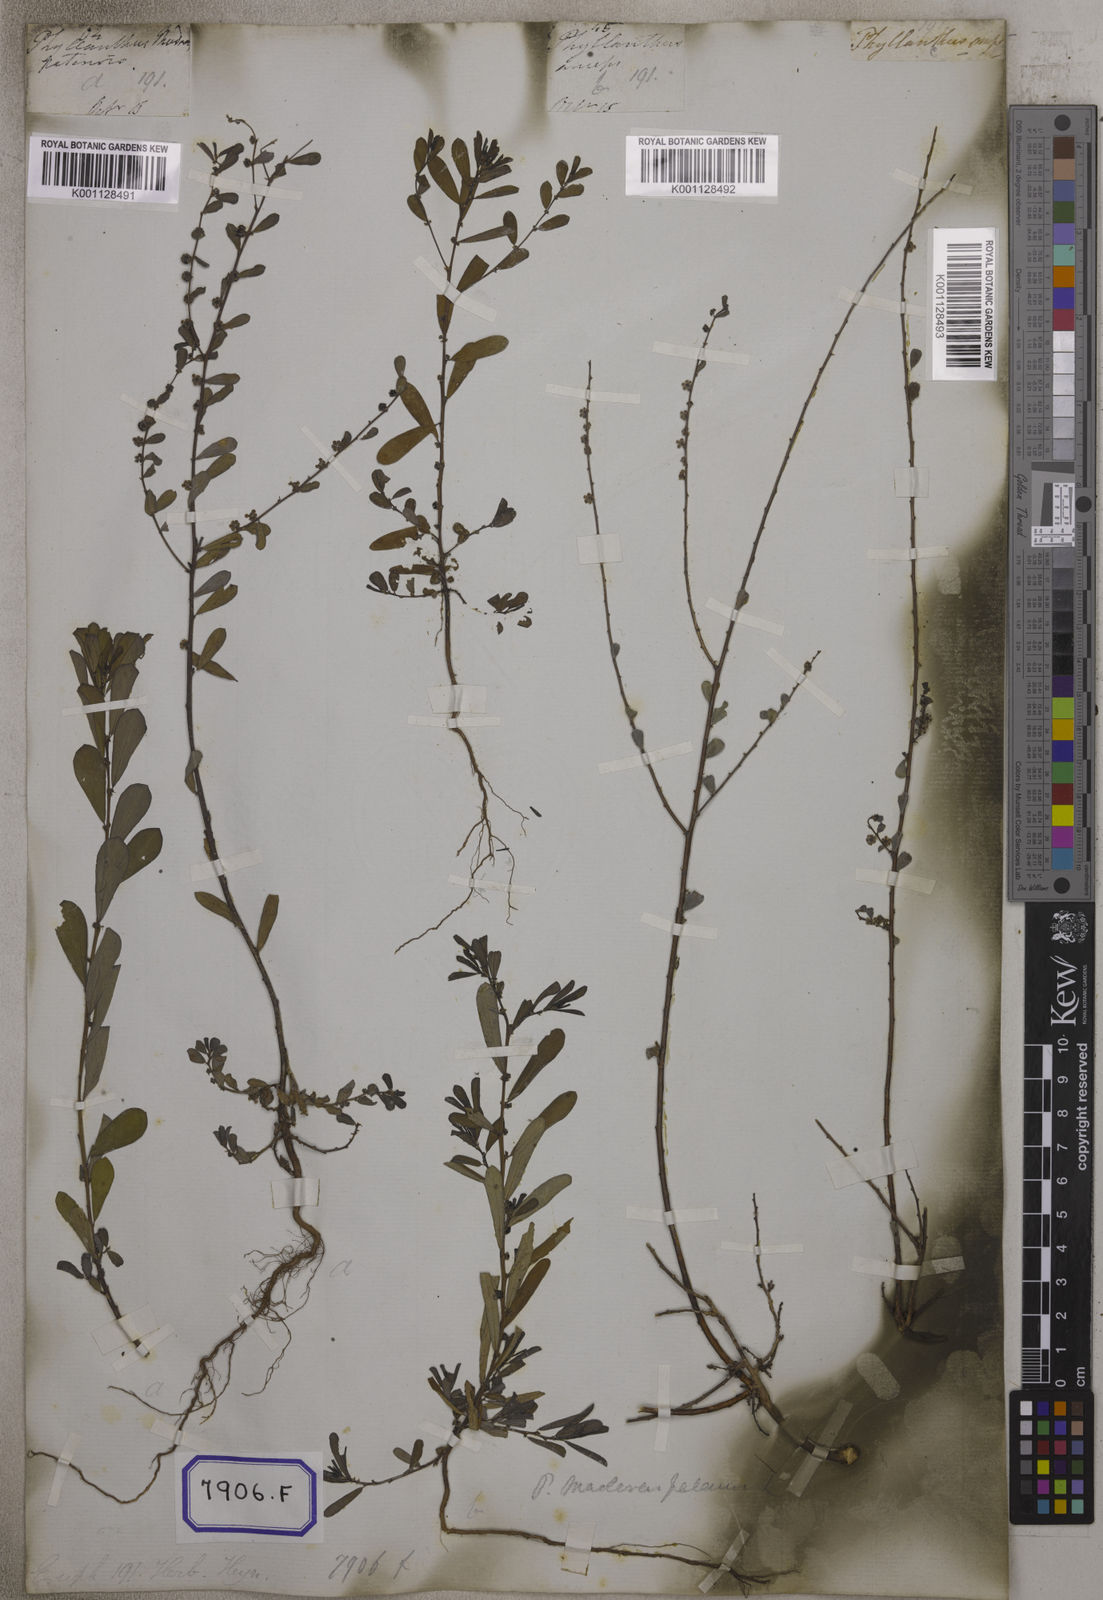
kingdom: Plantae
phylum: Tracheophyta
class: Magnoliopsida
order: Malpighiales
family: Euphorbiaceae
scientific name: Euphorbiaceae
